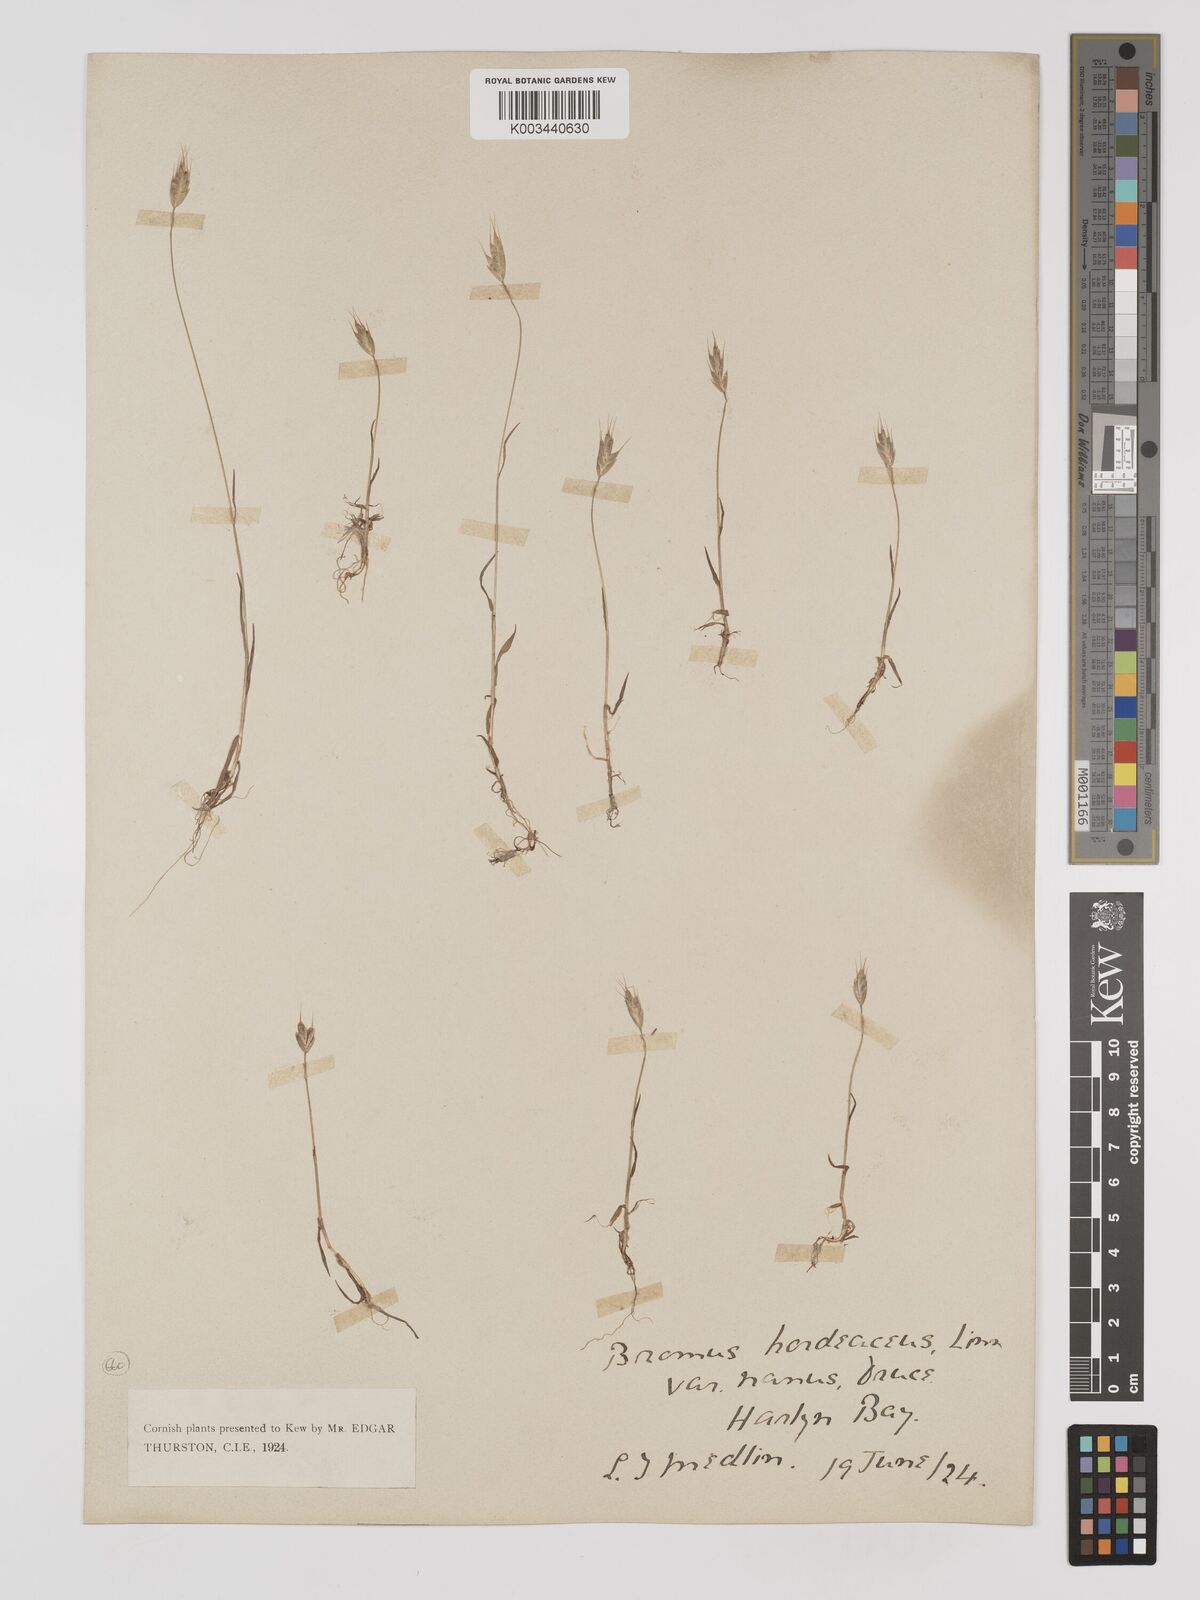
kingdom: Plantae
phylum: Tracheophyta
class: Liliopsida
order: Poales
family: Poaceae
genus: Bromus
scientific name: Bromus hordeaceus
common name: Soft brome
